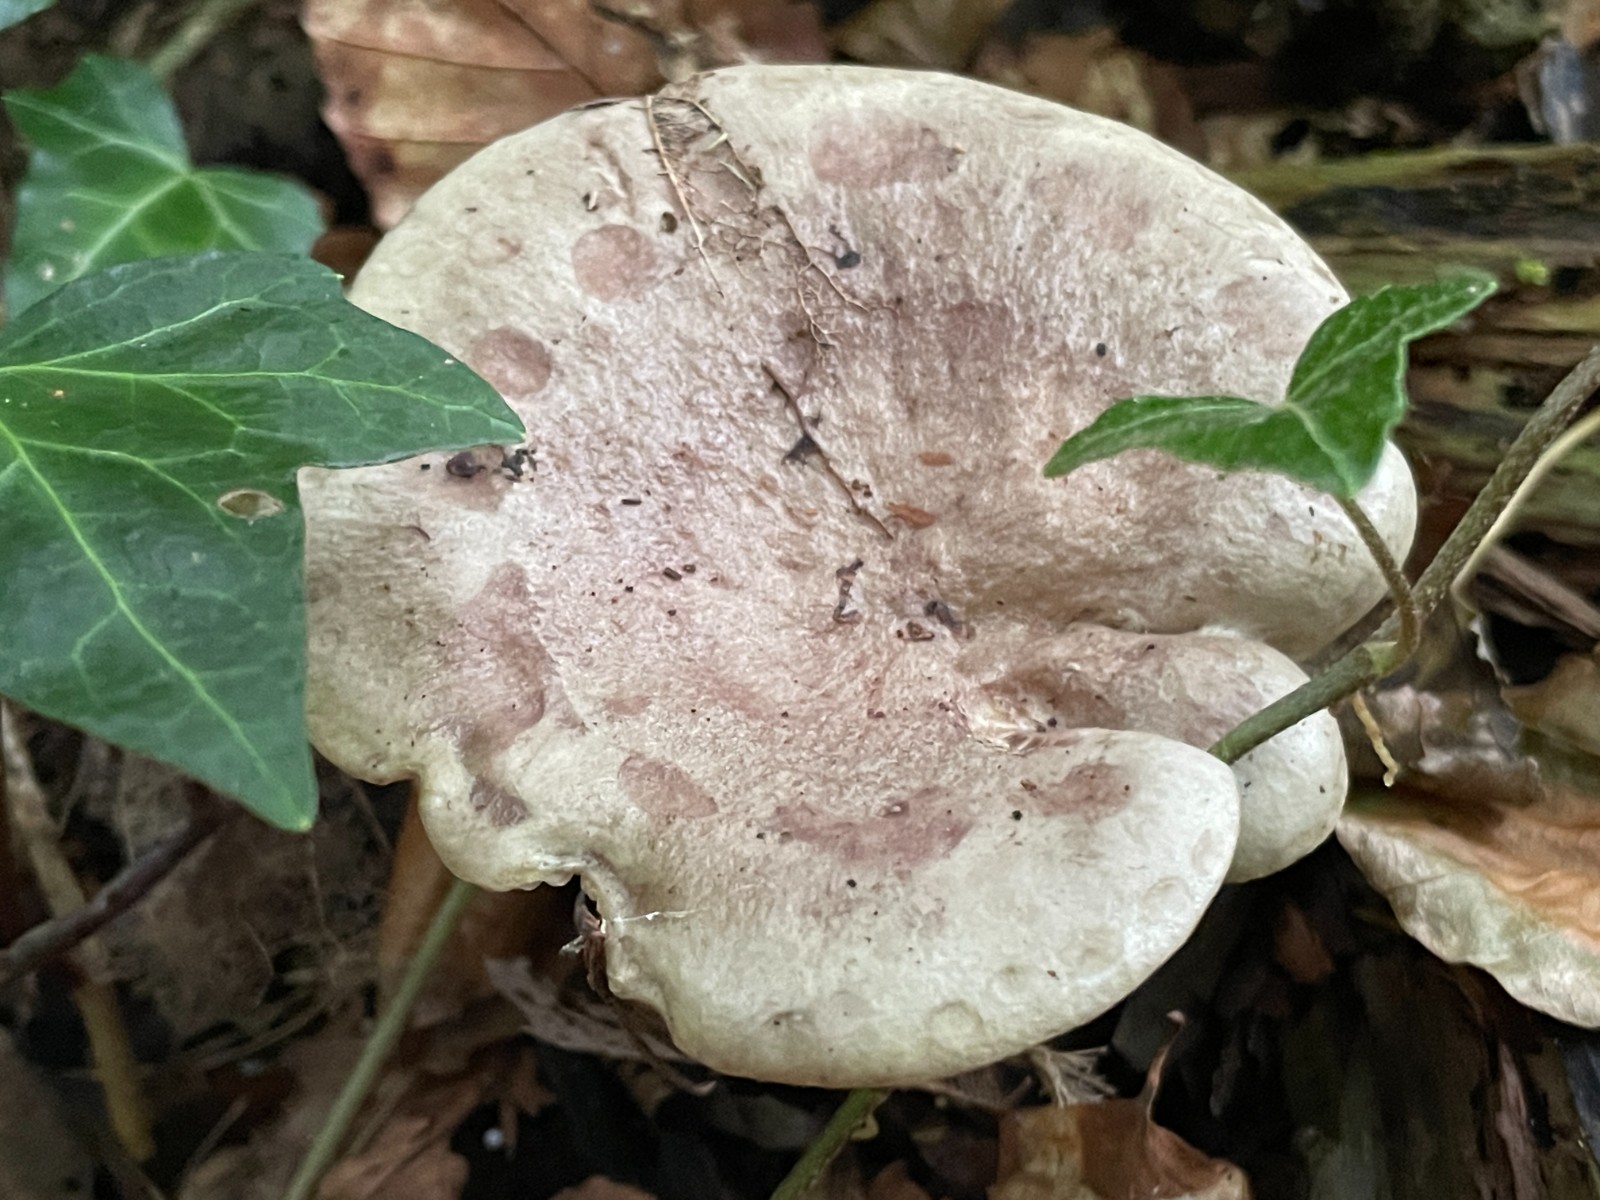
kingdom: Fungi
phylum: Basidiomycota
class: Agaricomycetes
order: Russulales
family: Russulaceae
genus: Lactarius
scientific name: Lactarius blennius
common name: dråbeplettet mælkehat
